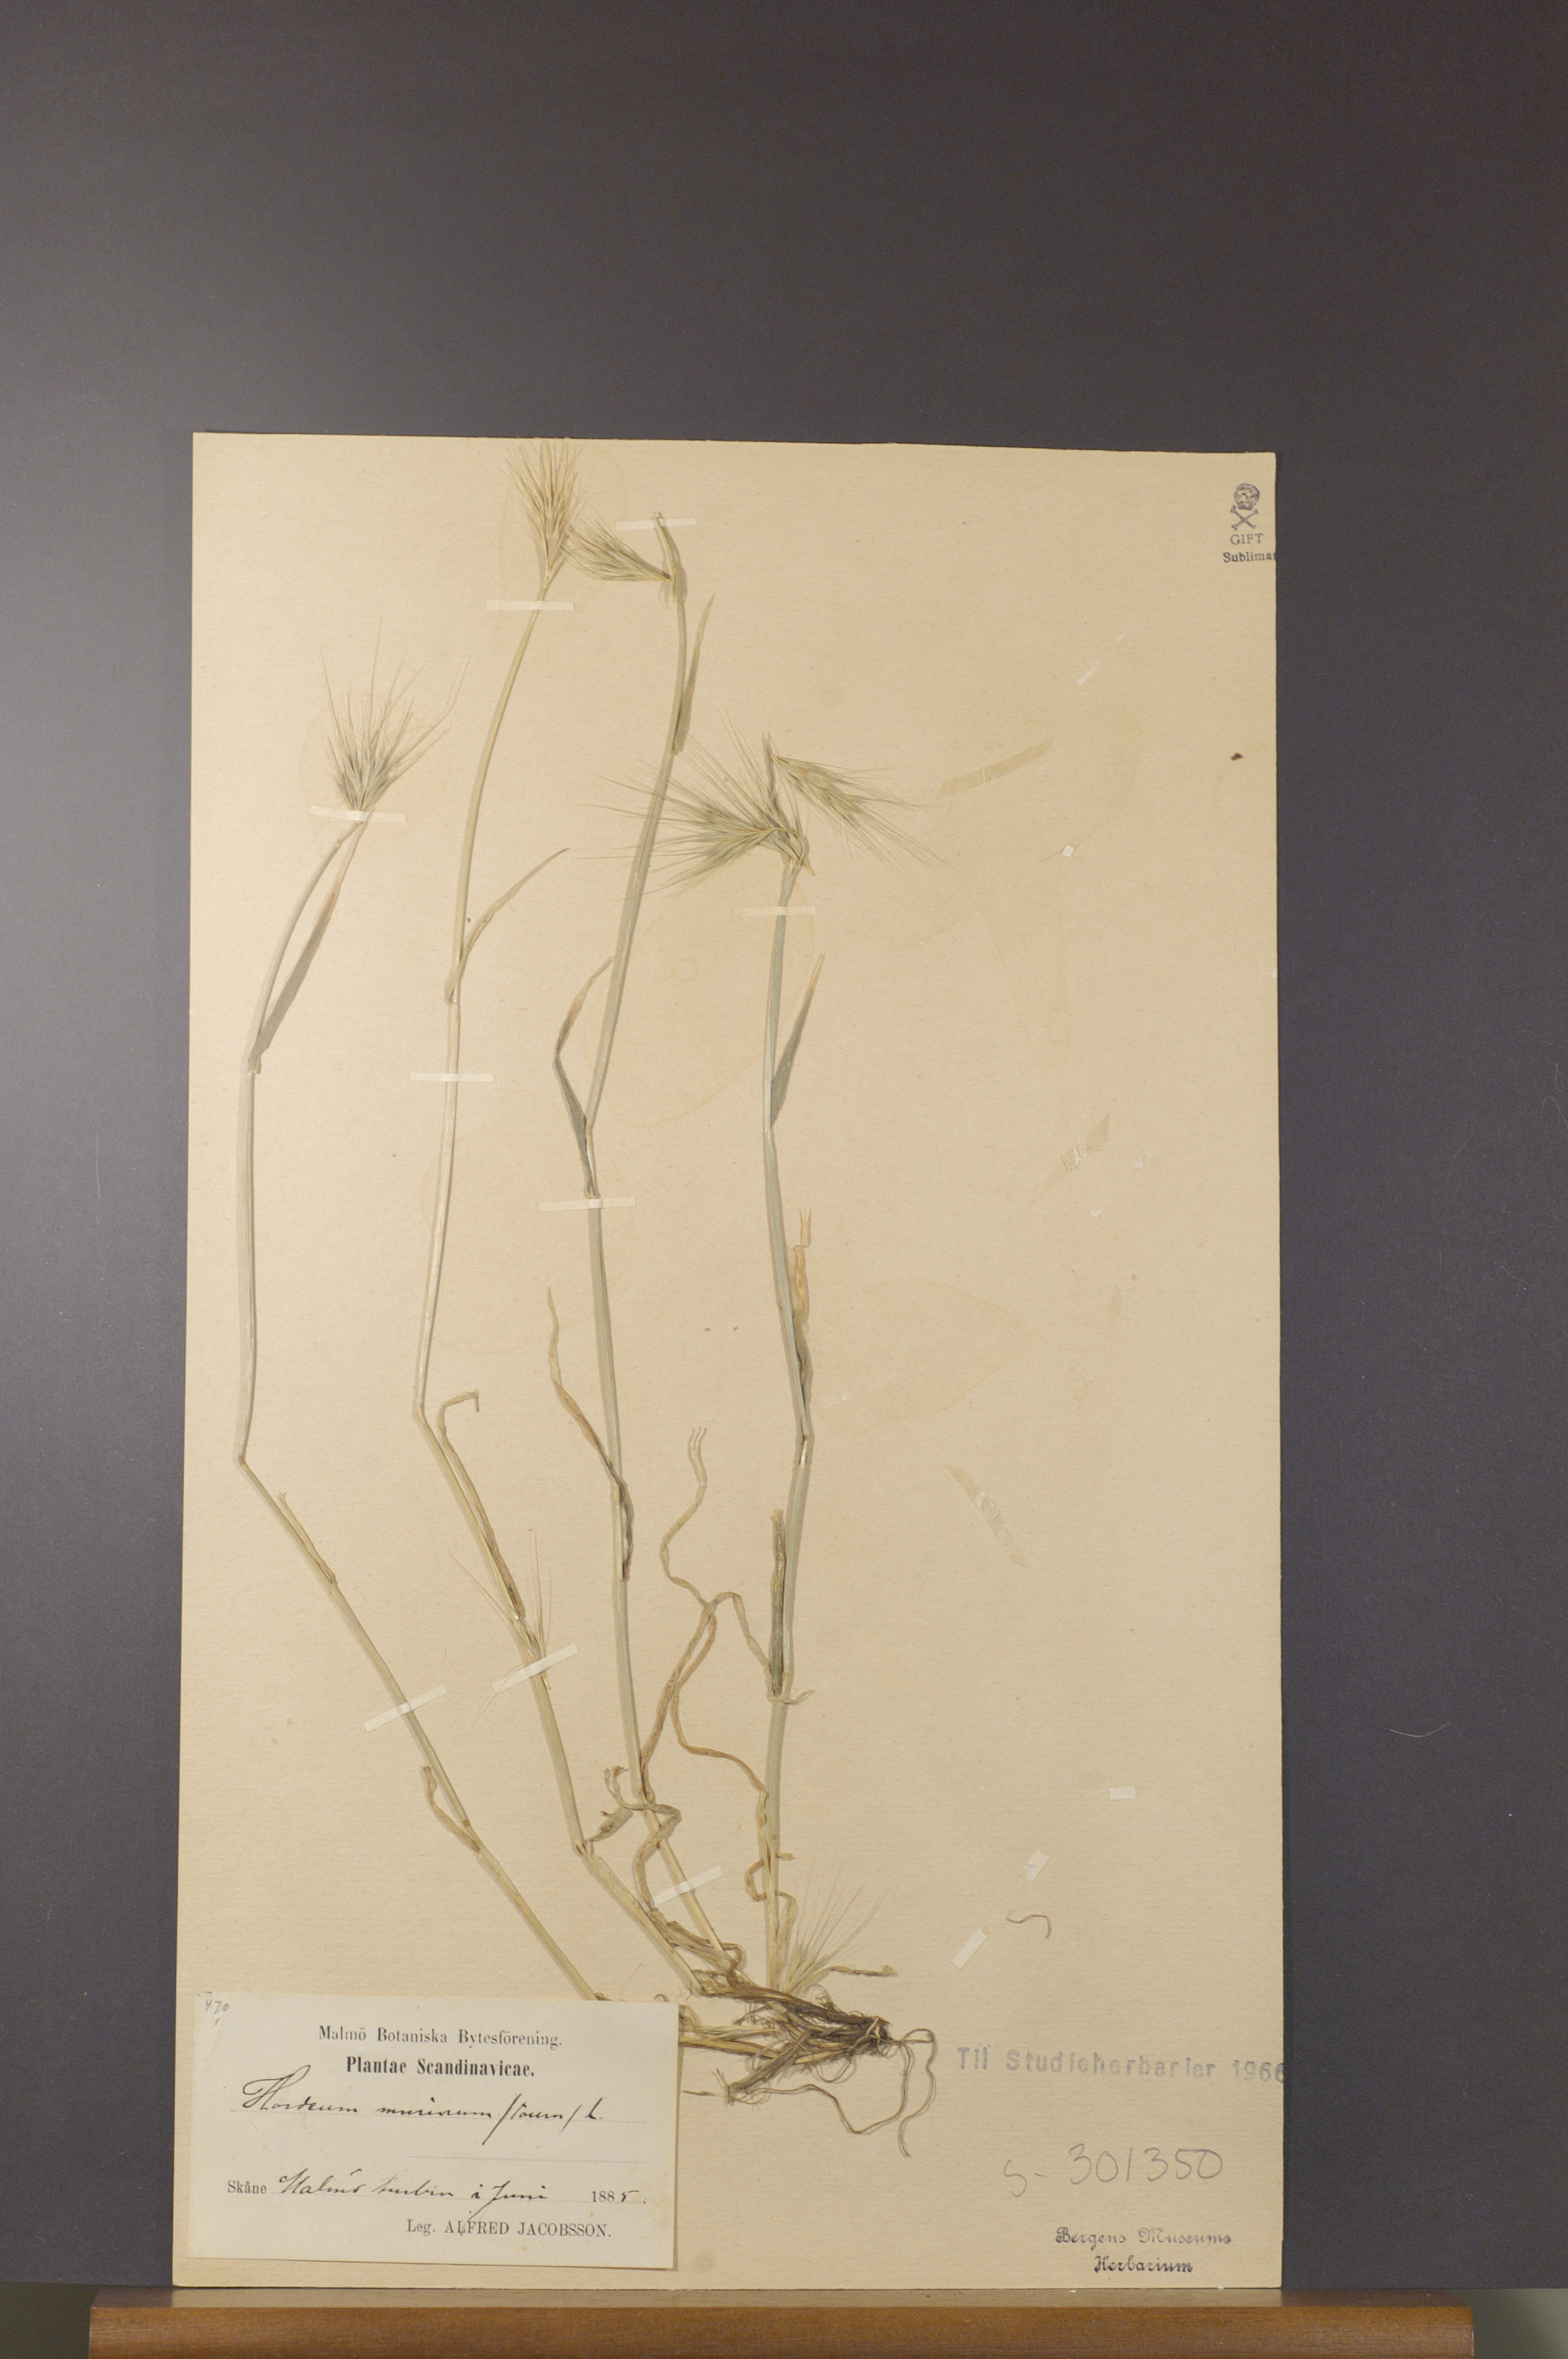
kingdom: Plantae
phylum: Tracheophyta
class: Liliopsida
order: Poales
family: Poaceae
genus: Hordeum
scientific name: Hordeum murinum
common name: Wall barley
